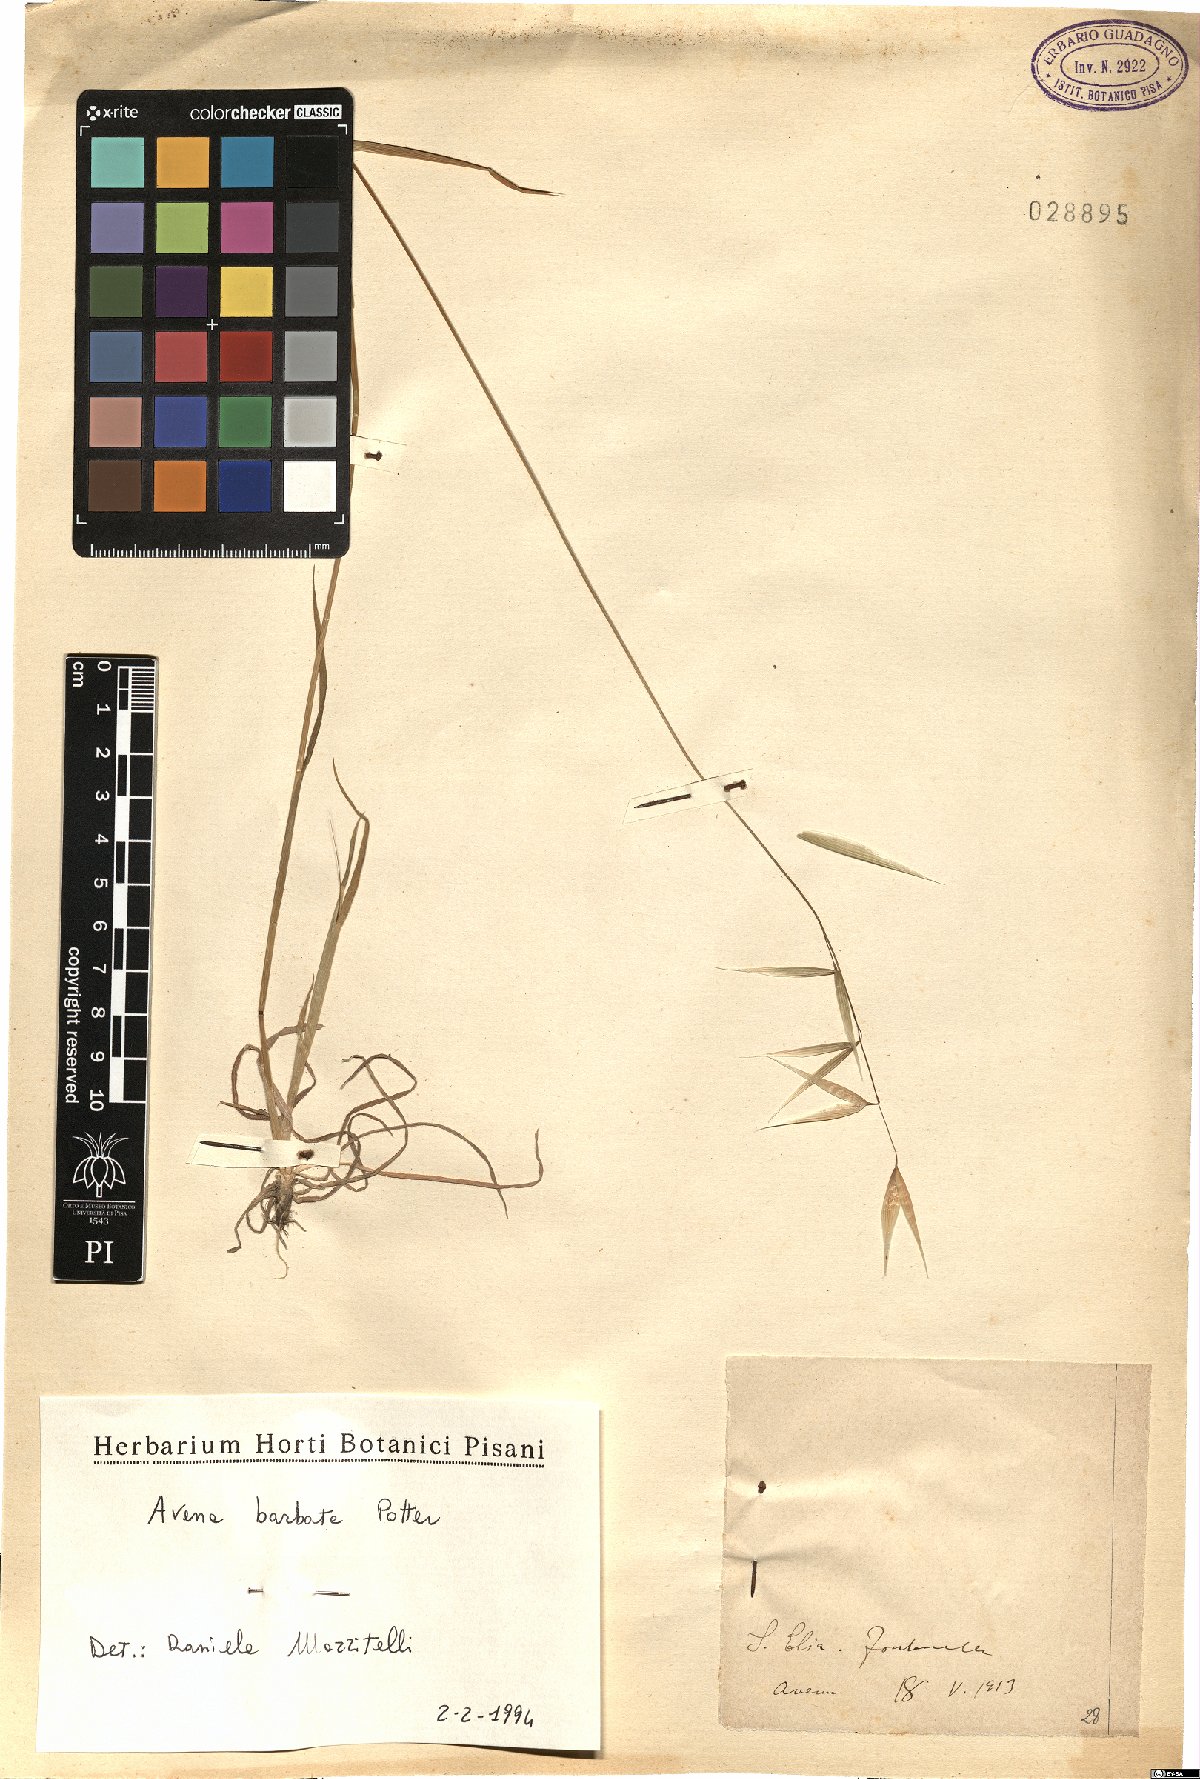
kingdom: Plantae
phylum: Tracheophyta
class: Liliopsida
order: Poales
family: Poaceae
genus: Avena
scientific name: Avena barbata
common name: Slender oat
